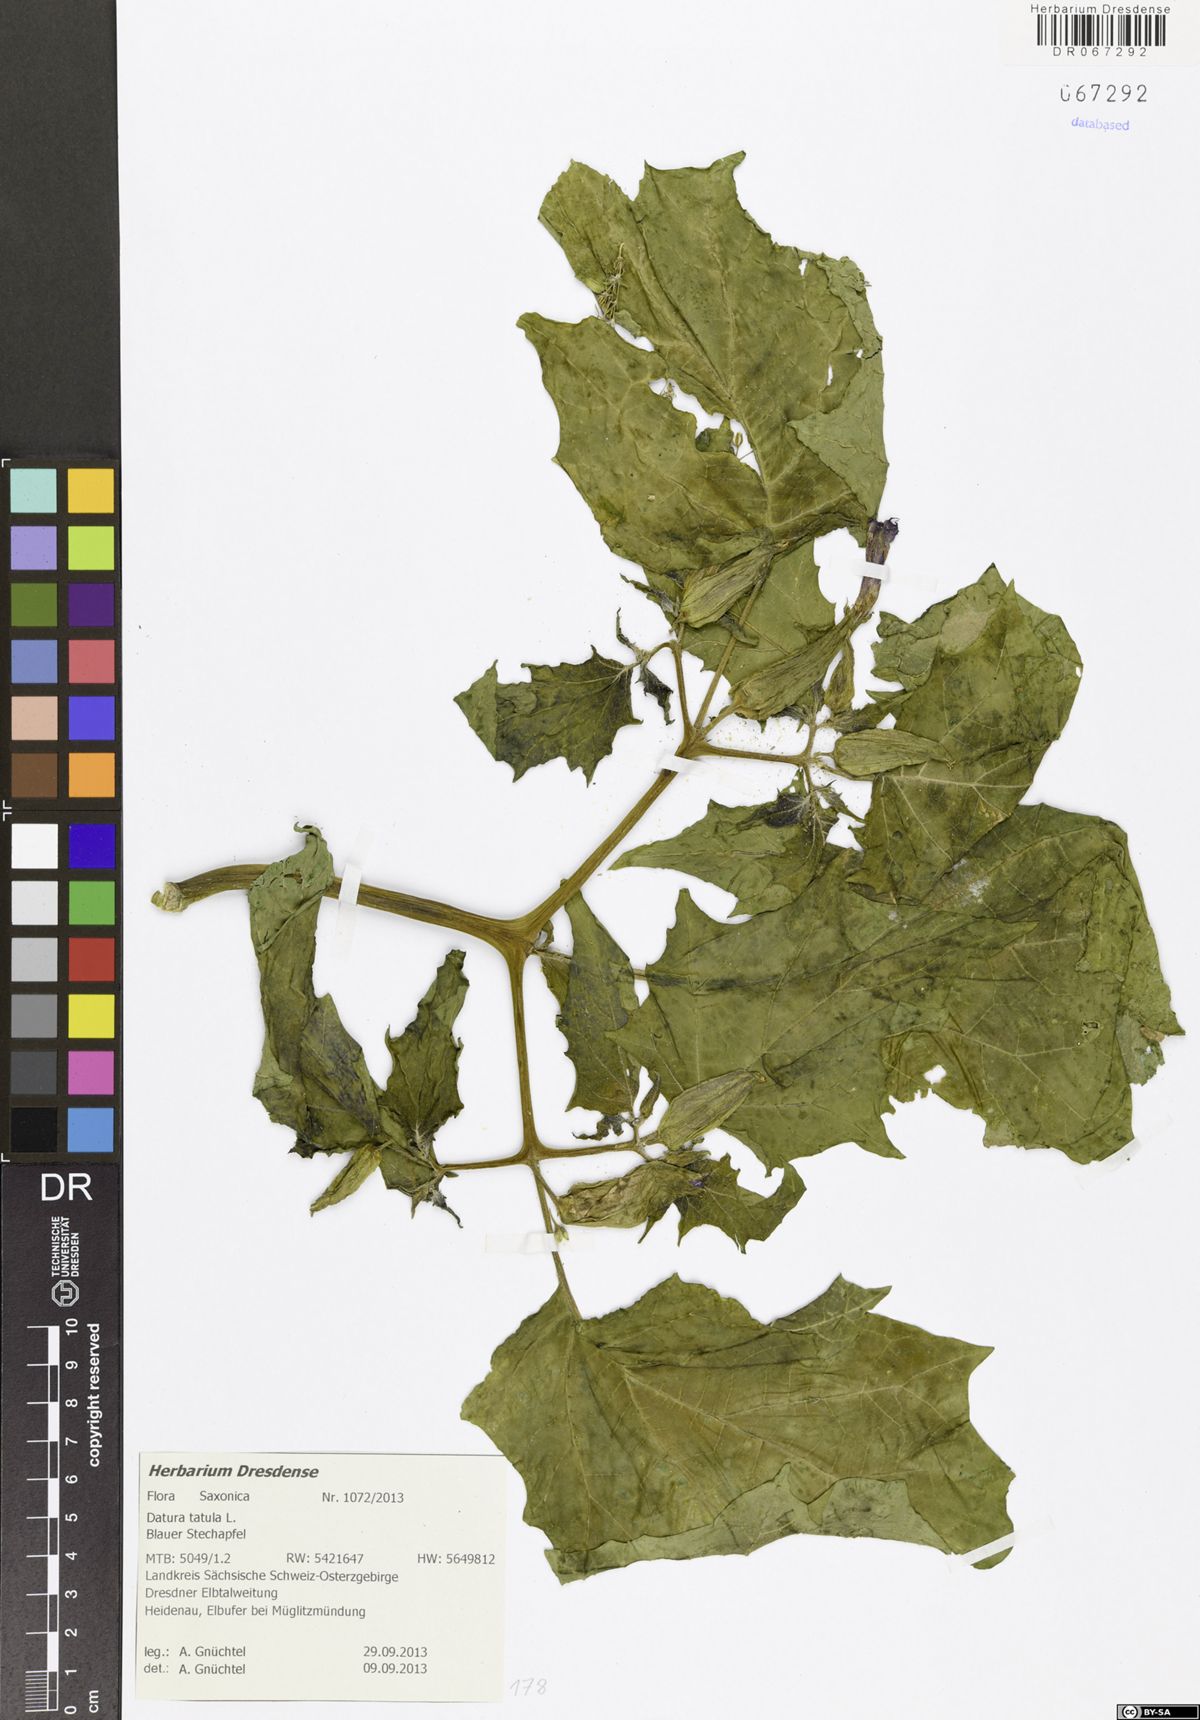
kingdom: Plantae
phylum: Tracheophyta
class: Magnoliopsida
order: Solanales
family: Solanaceae
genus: Datura
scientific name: Datura stramonium
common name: Thorn-apple
